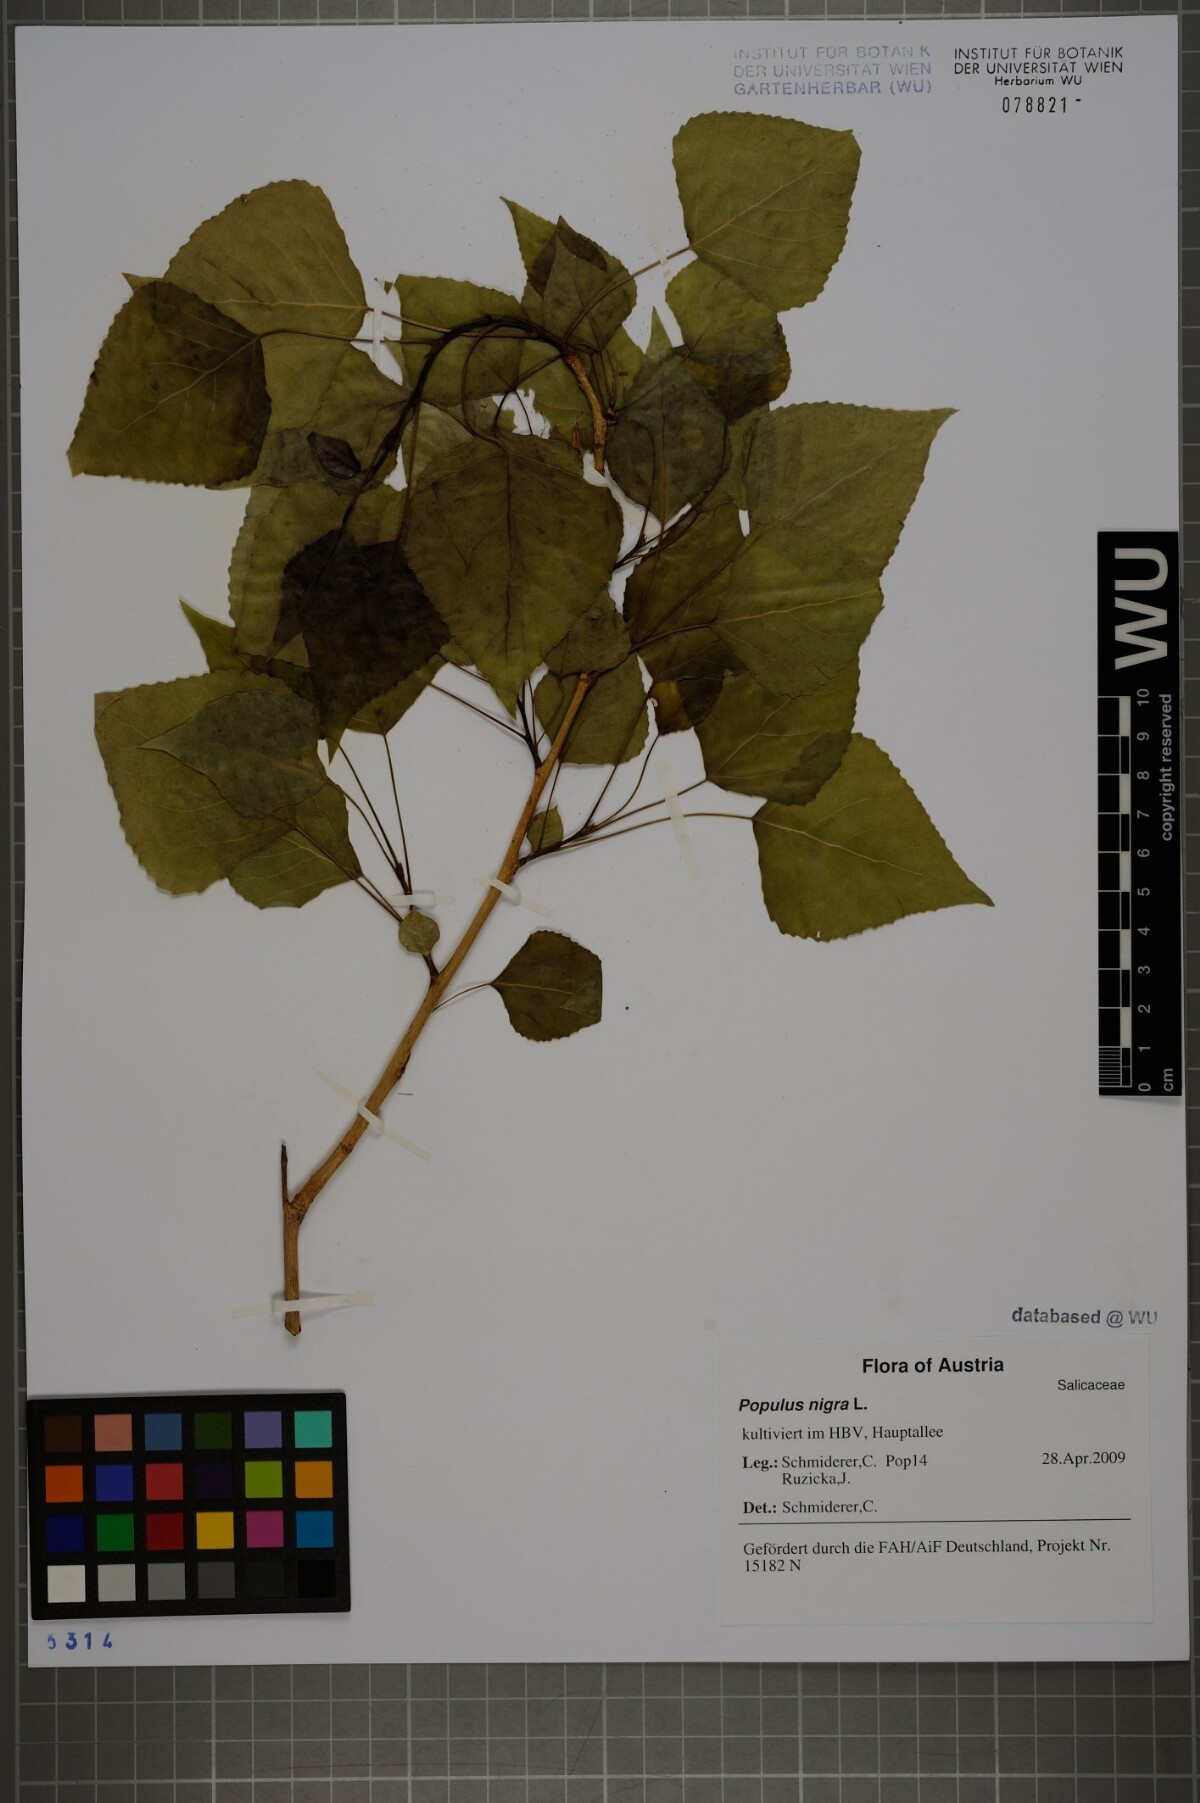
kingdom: Plantae
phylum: Tracheophyta
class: Magnoliopsida
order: Malpighiales
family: Salicaceae
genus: Populus
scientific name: Populus nigra
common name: Black poplar
